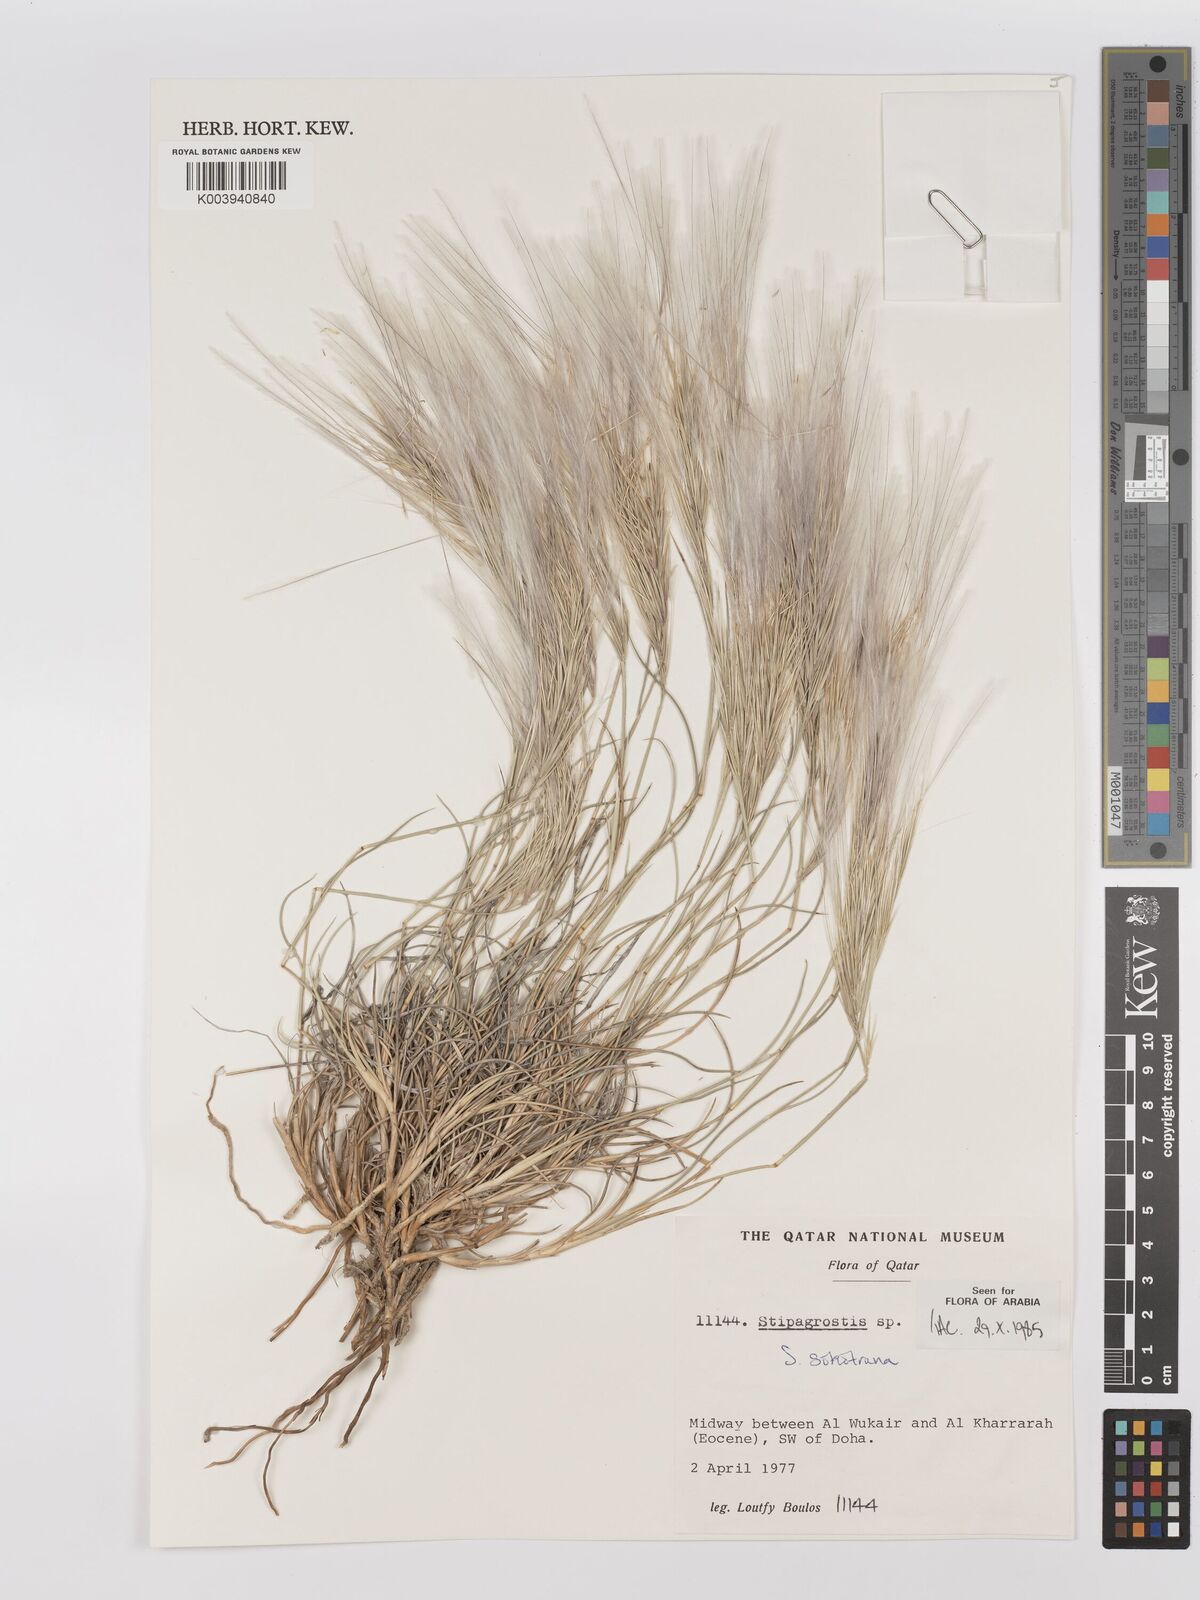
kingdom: Plantae
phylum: Tracheophyta
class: Liliopsida
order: Poales
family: Poaceae
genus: Stipagrostis
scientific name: Stipagrostis sokotrana
